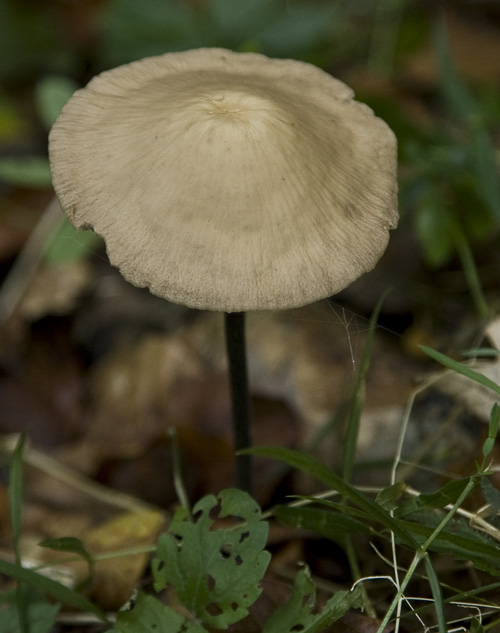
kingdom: Fungi
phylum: Basidiomycota
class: Agaricomycetes
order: Agaricales
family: Omphalotaceae
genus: Mycetinis
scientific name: Mycetinis alliaceus
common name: stor løghat
